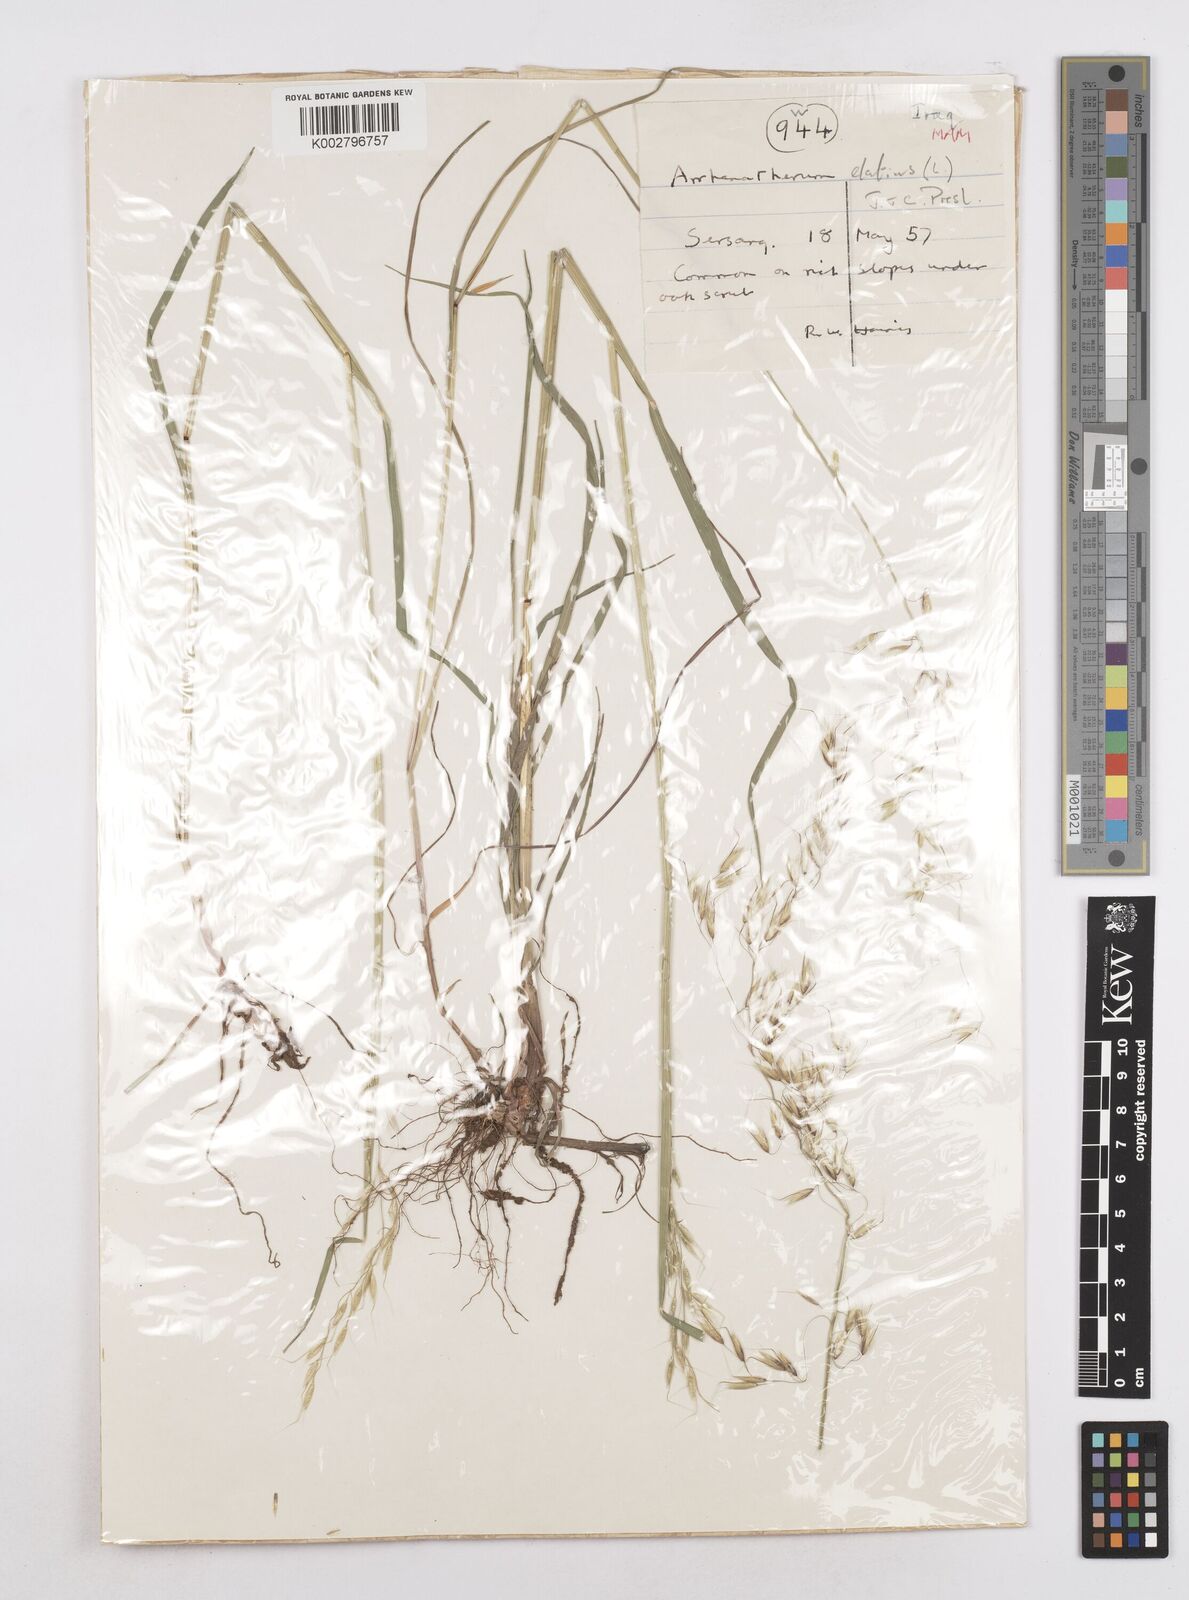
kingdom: Plantae
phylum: Tracheophyta
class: Liliopsida
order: Poales
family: Poaceae
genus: Arrhenatherum
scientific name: Arrhenatherum elatius
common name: Tall oatgrass
